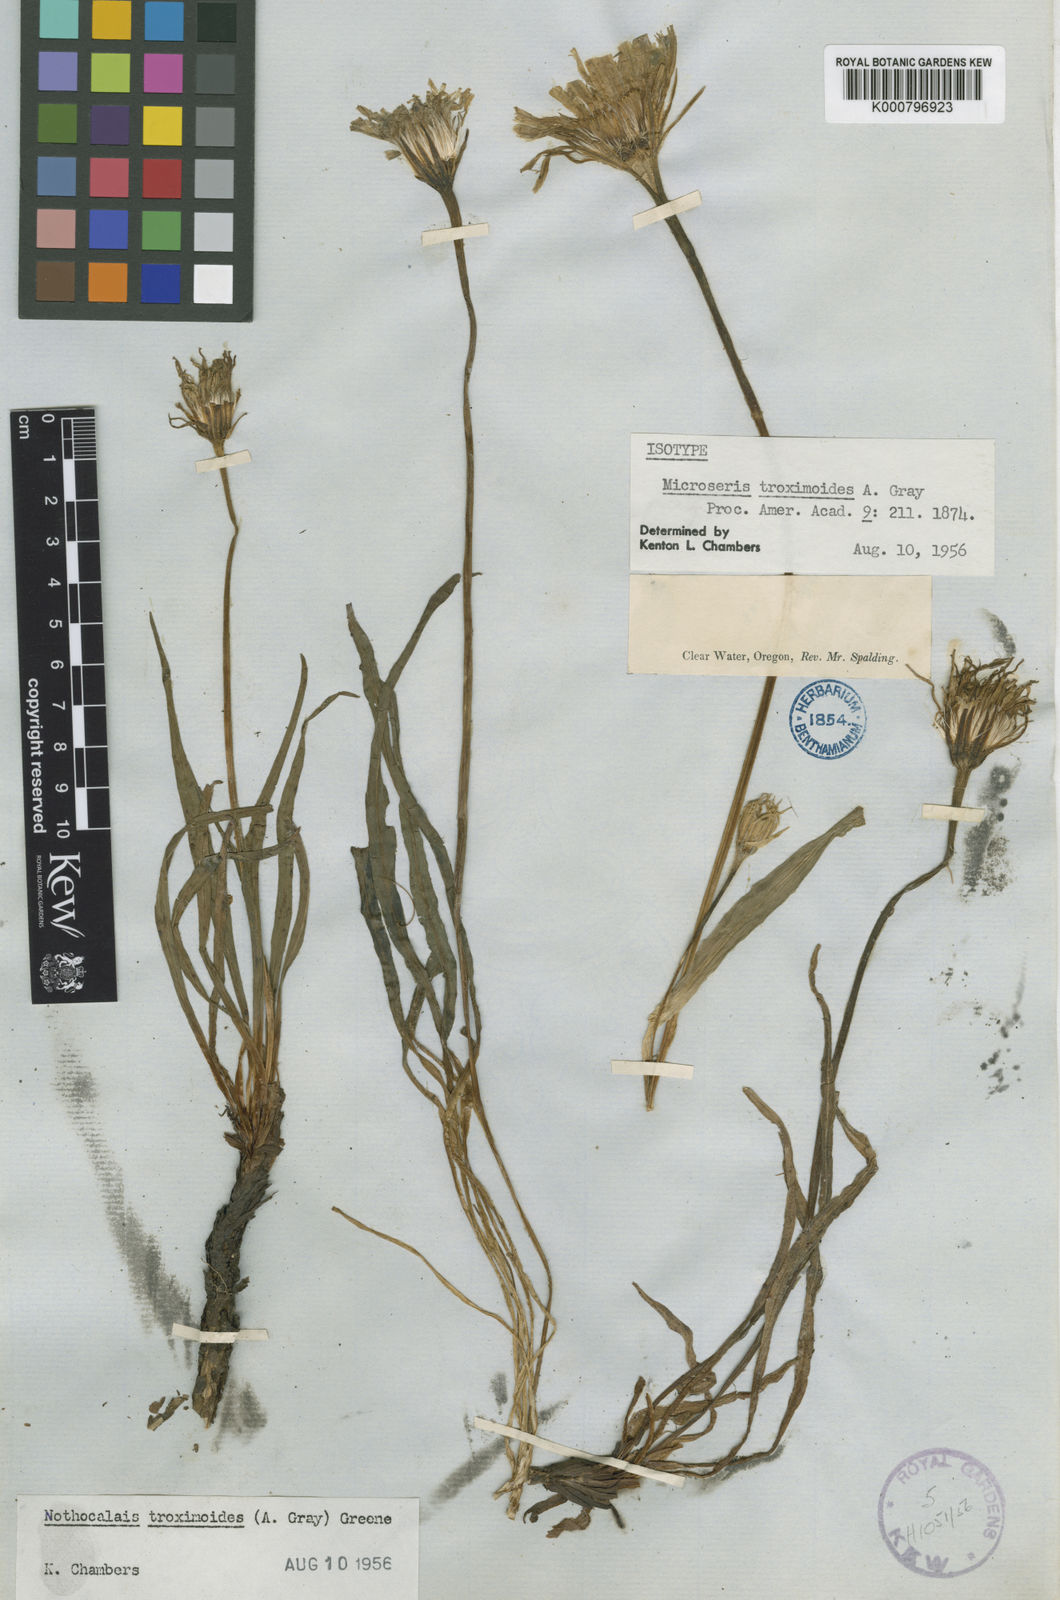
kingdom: Plantae
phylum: Tracheophyta
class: Magnoliopsida
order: Asterales
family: Asteraceae
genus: Microseris
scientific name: Microseris troximoides
